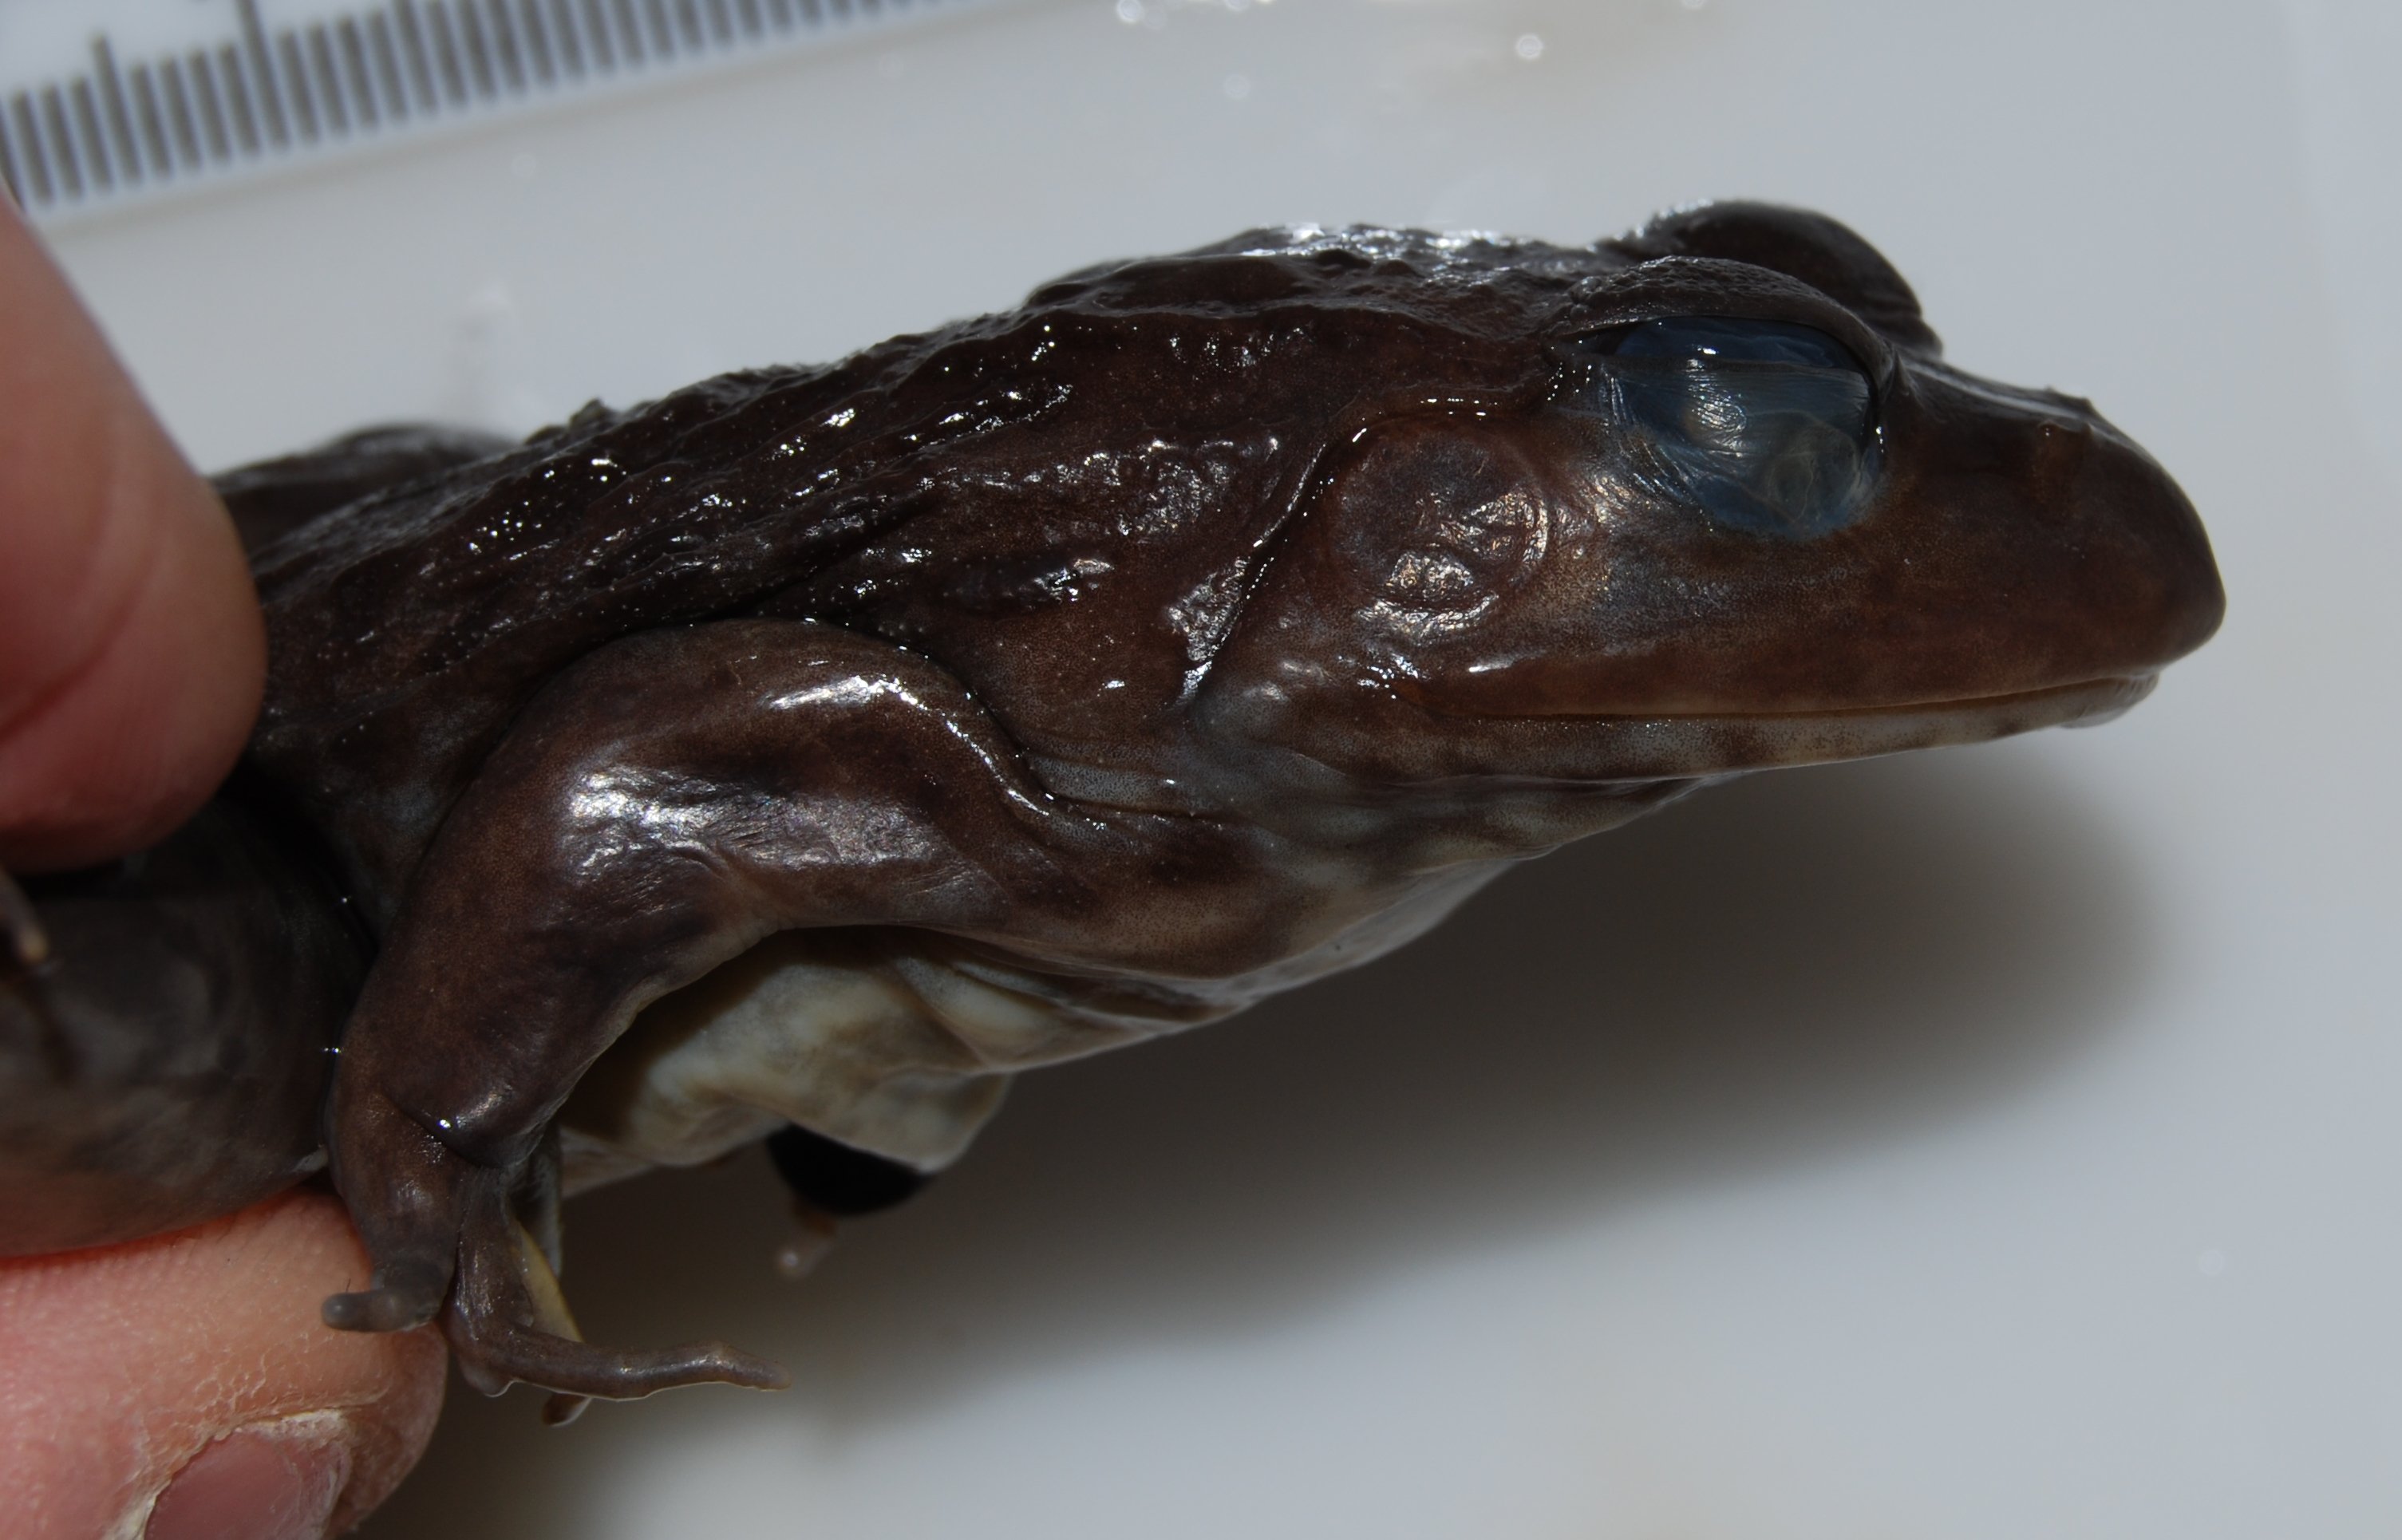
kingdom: Animalia
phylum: Chordata
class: Amphibia
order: Anura
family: Pyxicephalidae
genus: Amietia
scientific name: Amietia fuscigula
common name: Cape rana
